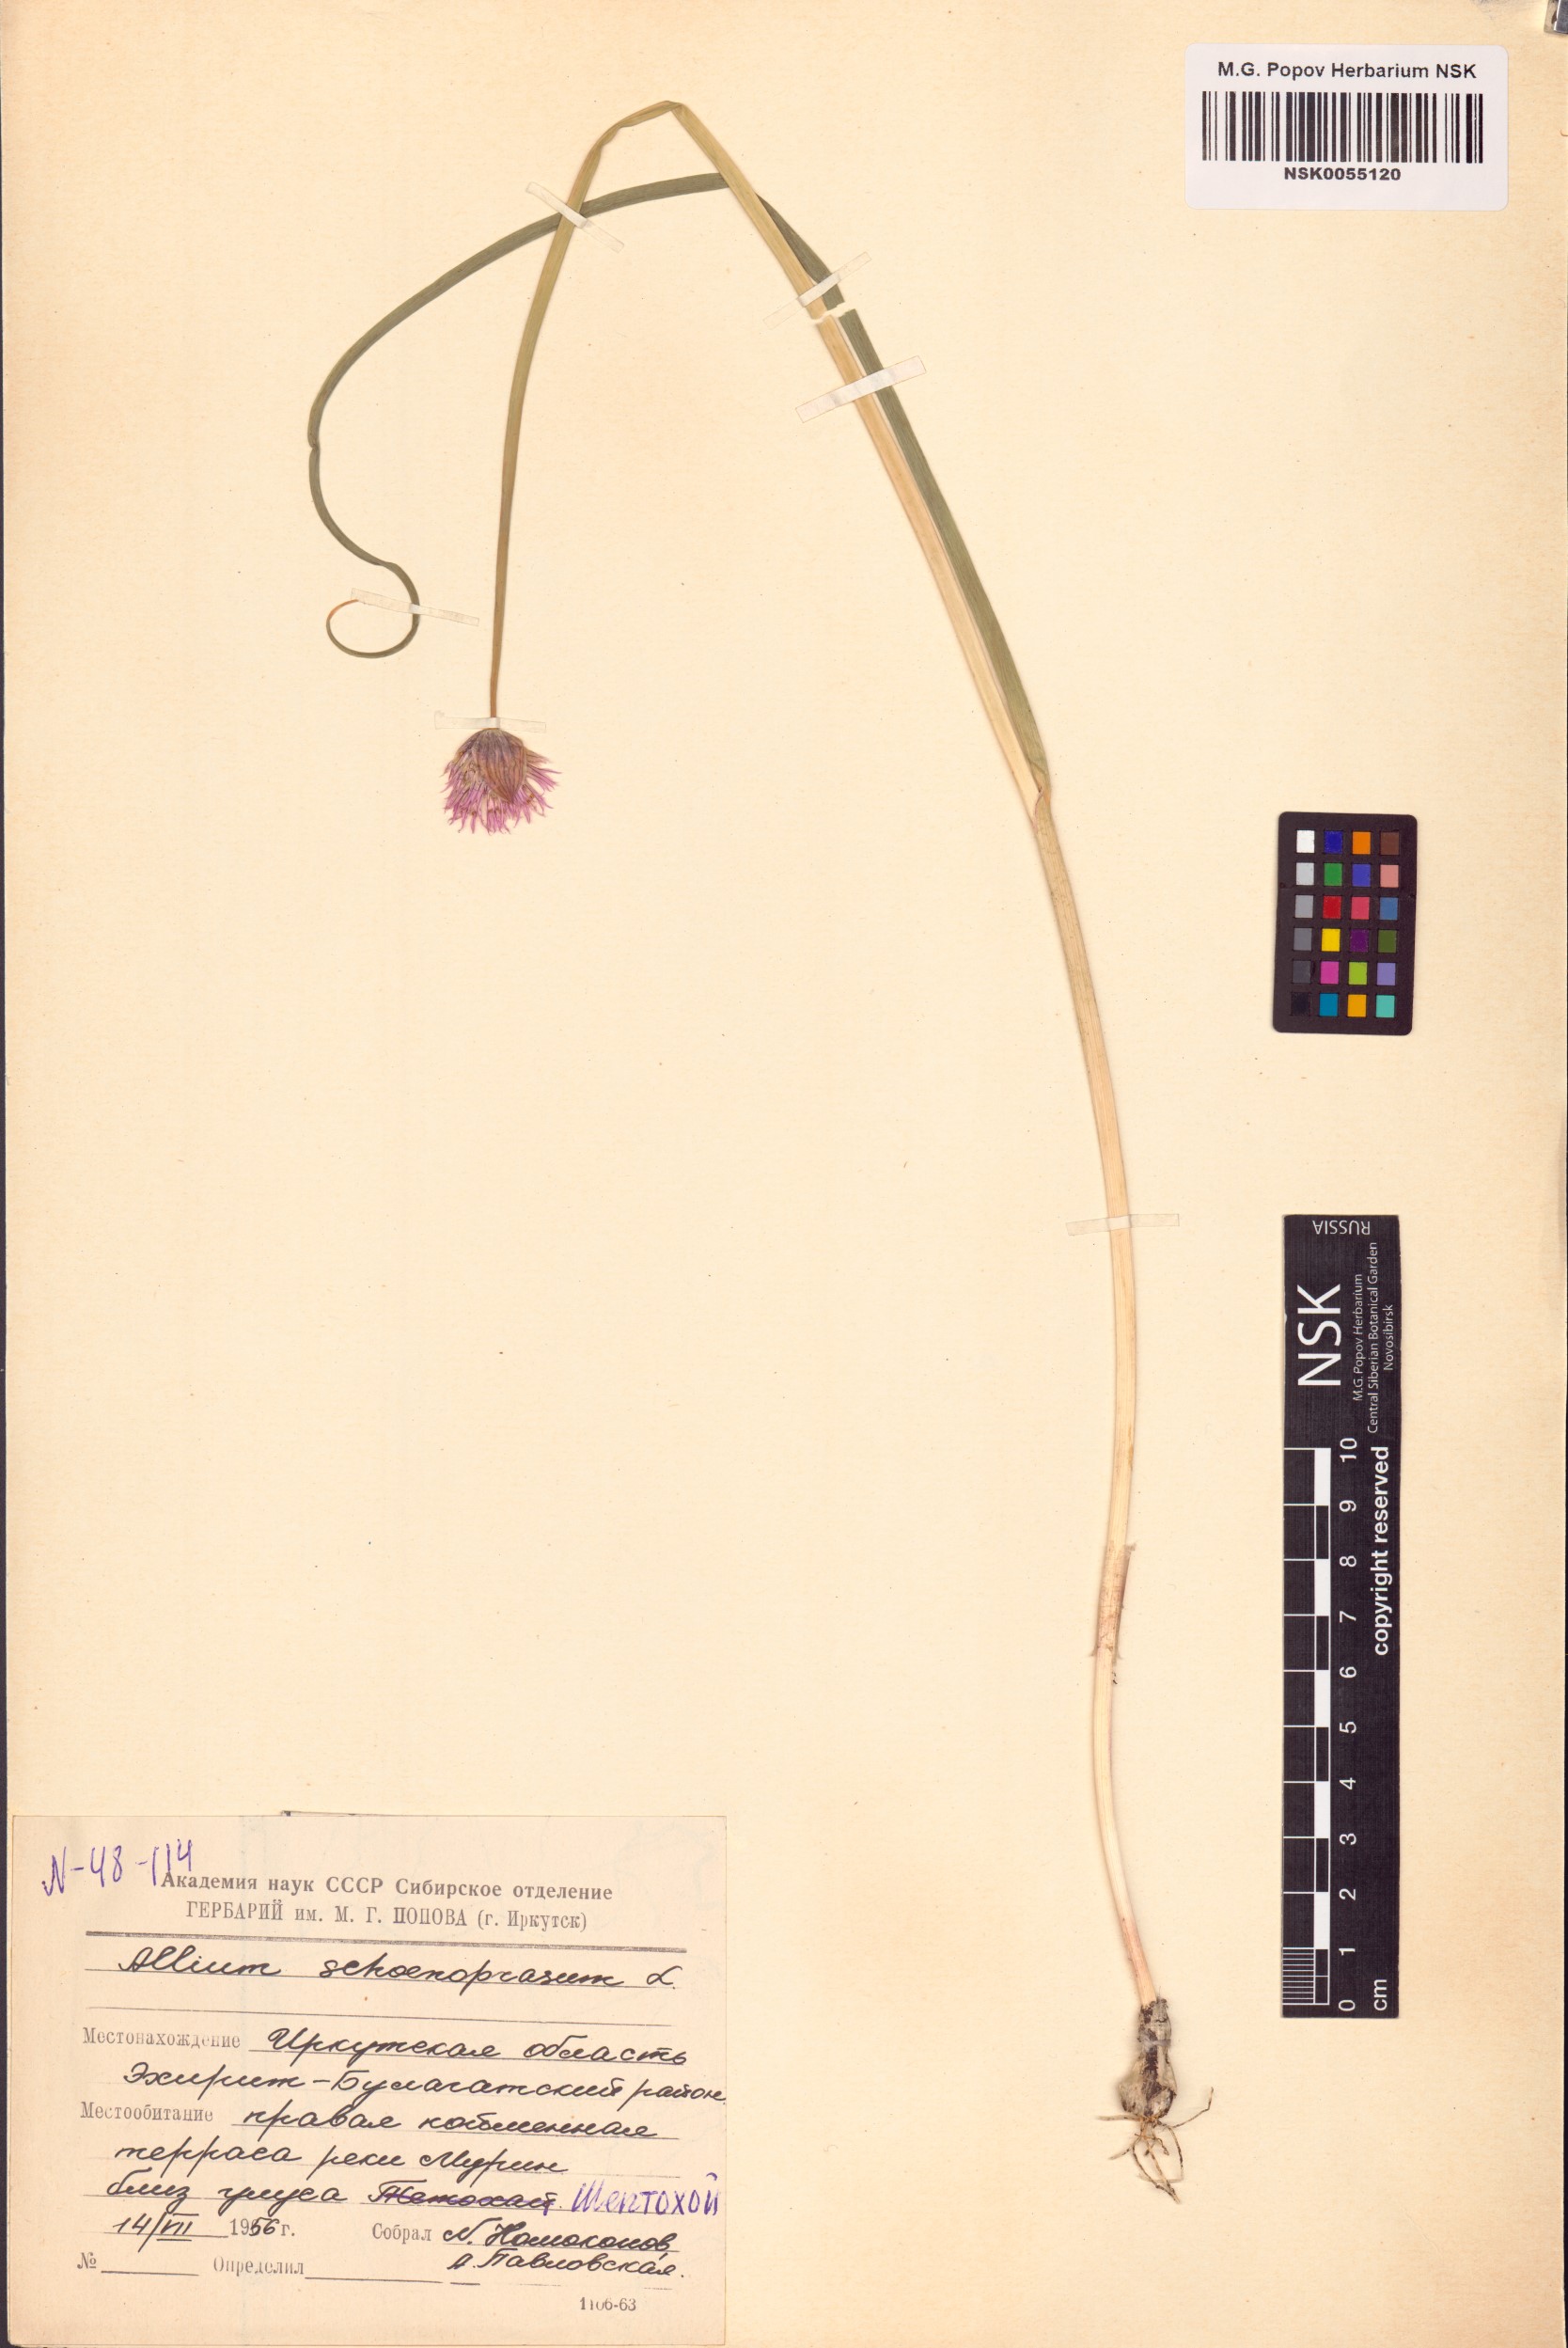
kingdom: Plantae
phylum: Tracheophyta
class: Liliopsida
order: Asparagales
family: Amaryllidaceae
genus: Allium
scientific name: Allium schoenoprasum
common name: Chives
